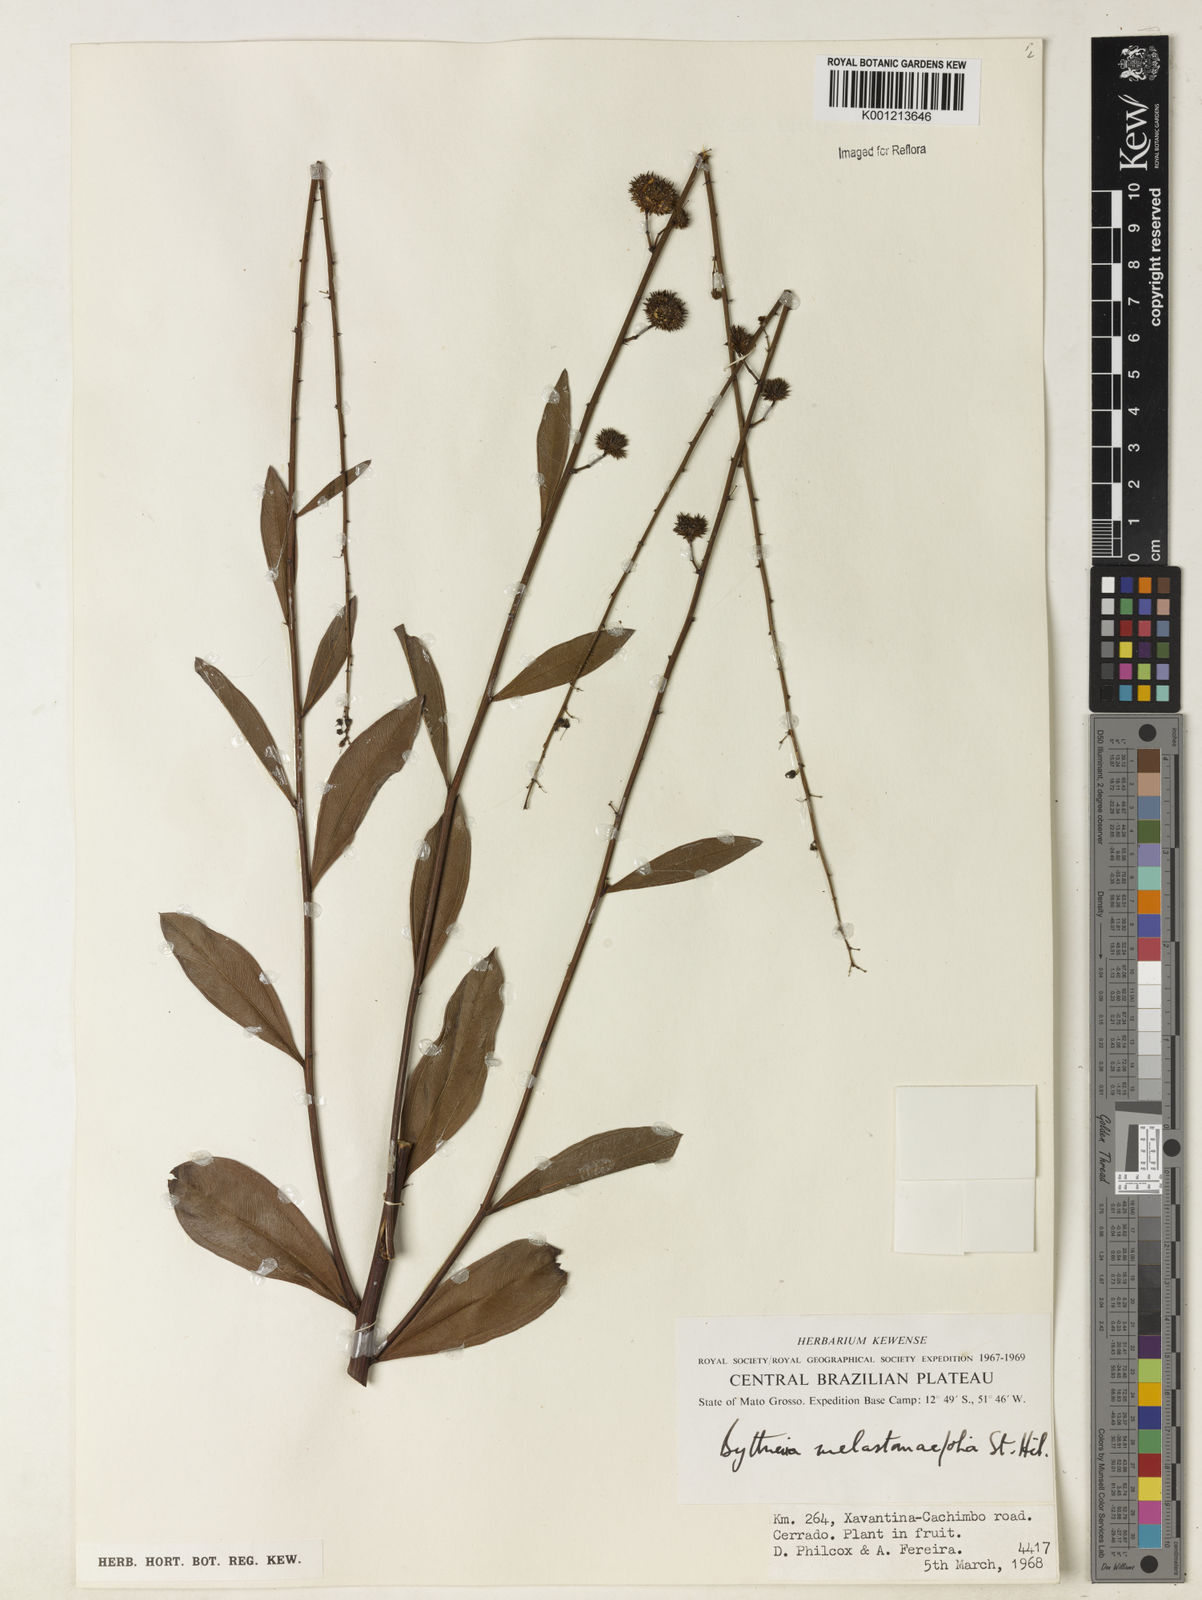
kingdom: Plantae
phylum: Tracheophyta
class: Magnoliopsida
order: Malvales
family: Malvaceae
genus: Byttneria
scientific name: Byttneria melastomifolia
